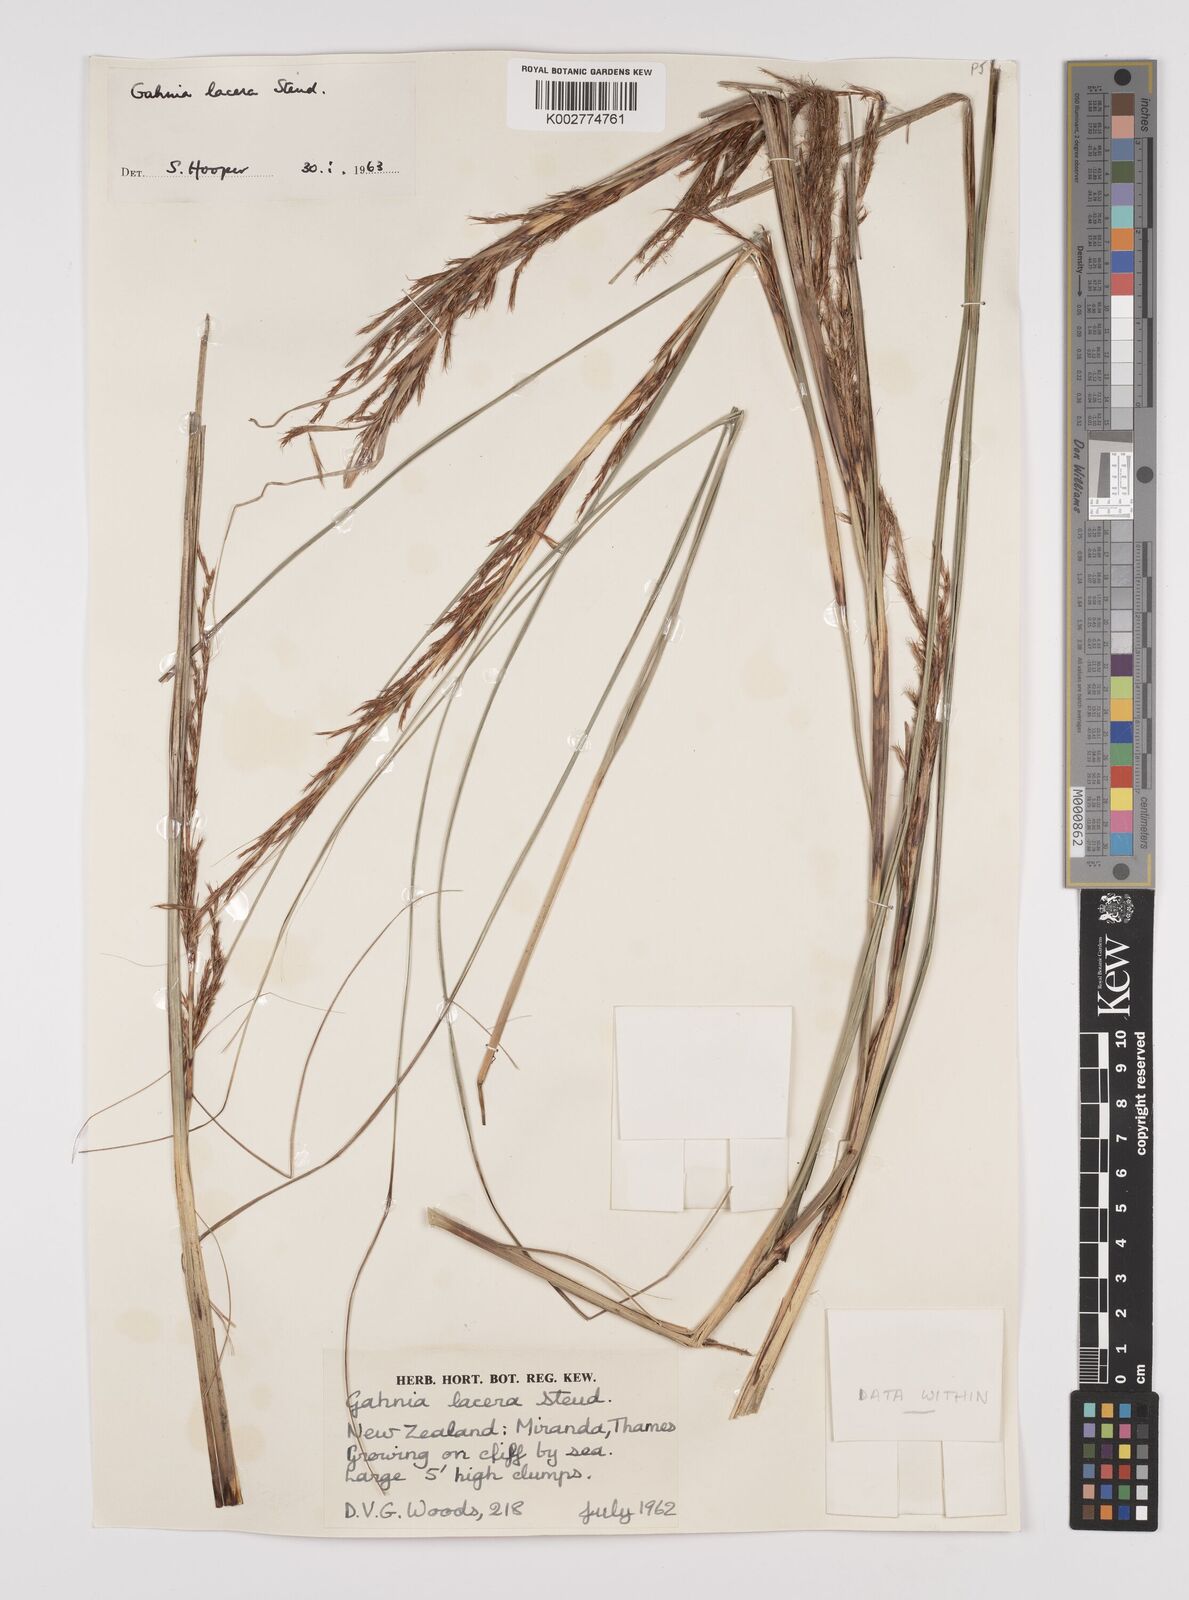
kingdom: Plantae
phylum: Tracheophyta
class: Liliopsida
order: Poales
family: Cyperaceae
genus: Gahnia
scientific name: Gahnia lacera
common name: Sawsedge
